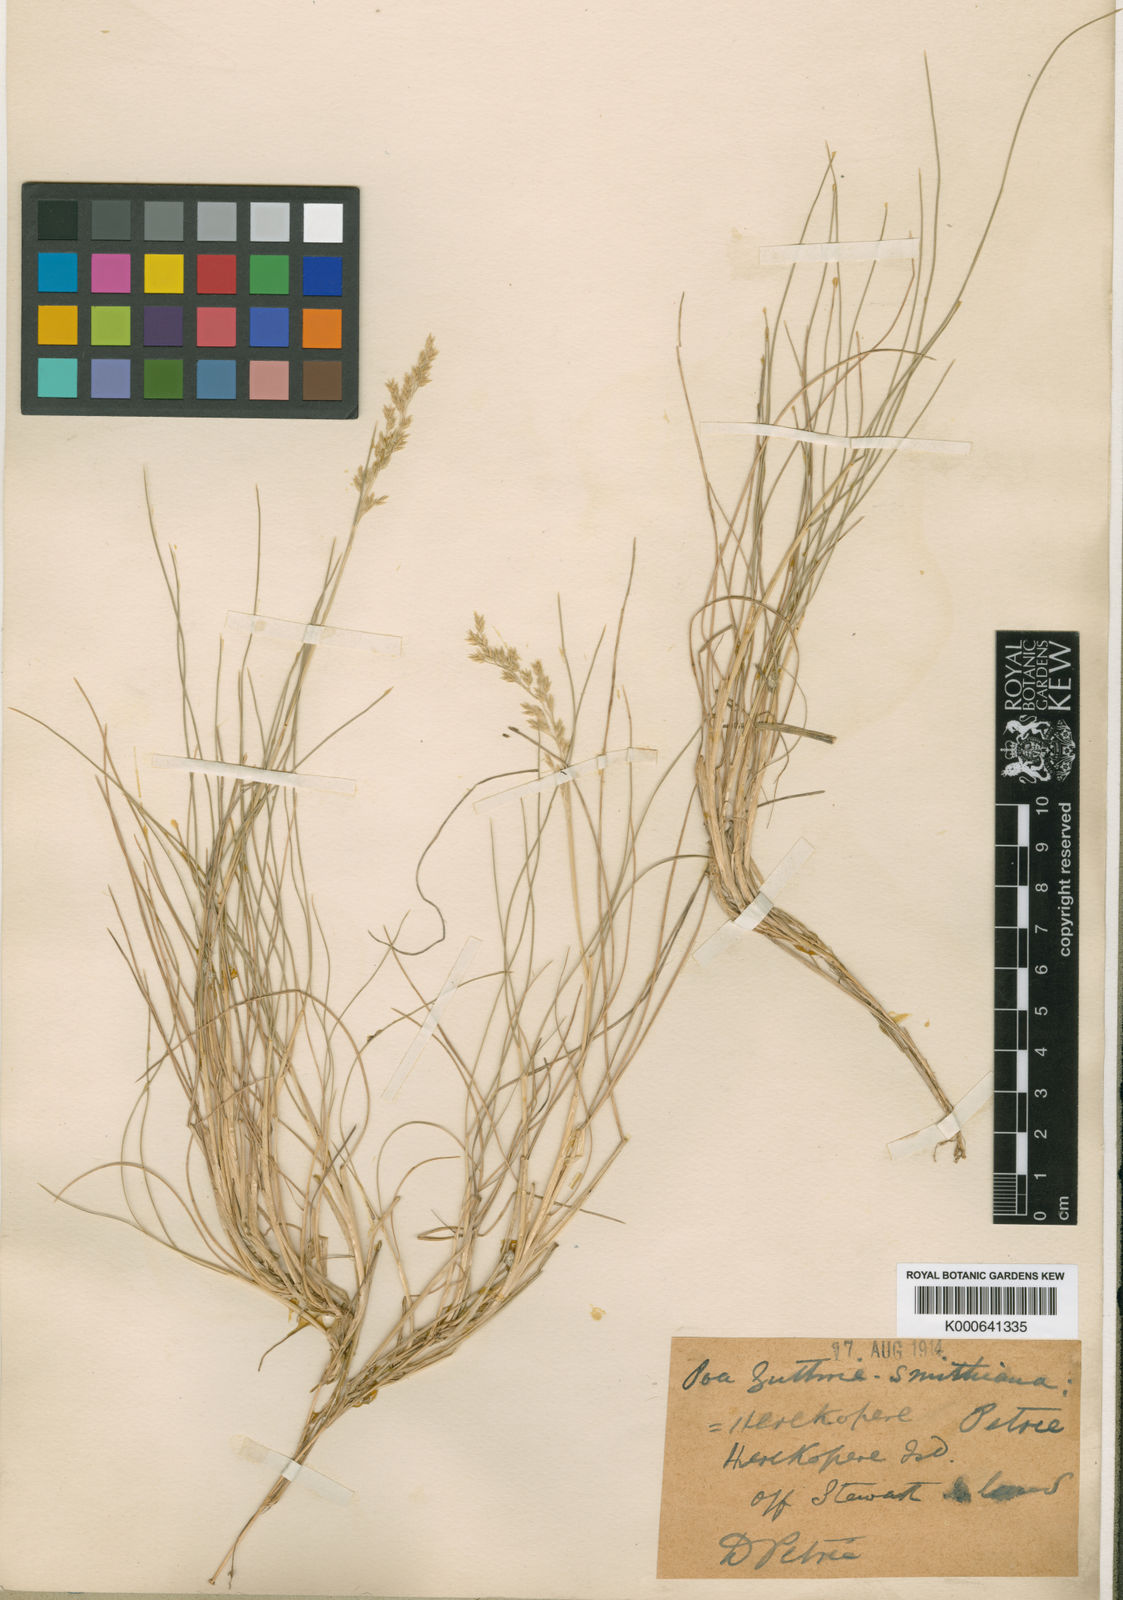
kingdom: Plantae
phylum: Tracheophyta
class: Liliopsida
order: Poales
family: Poaceae
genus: Poa
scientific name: Poa colensoi
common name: Blue tussock
